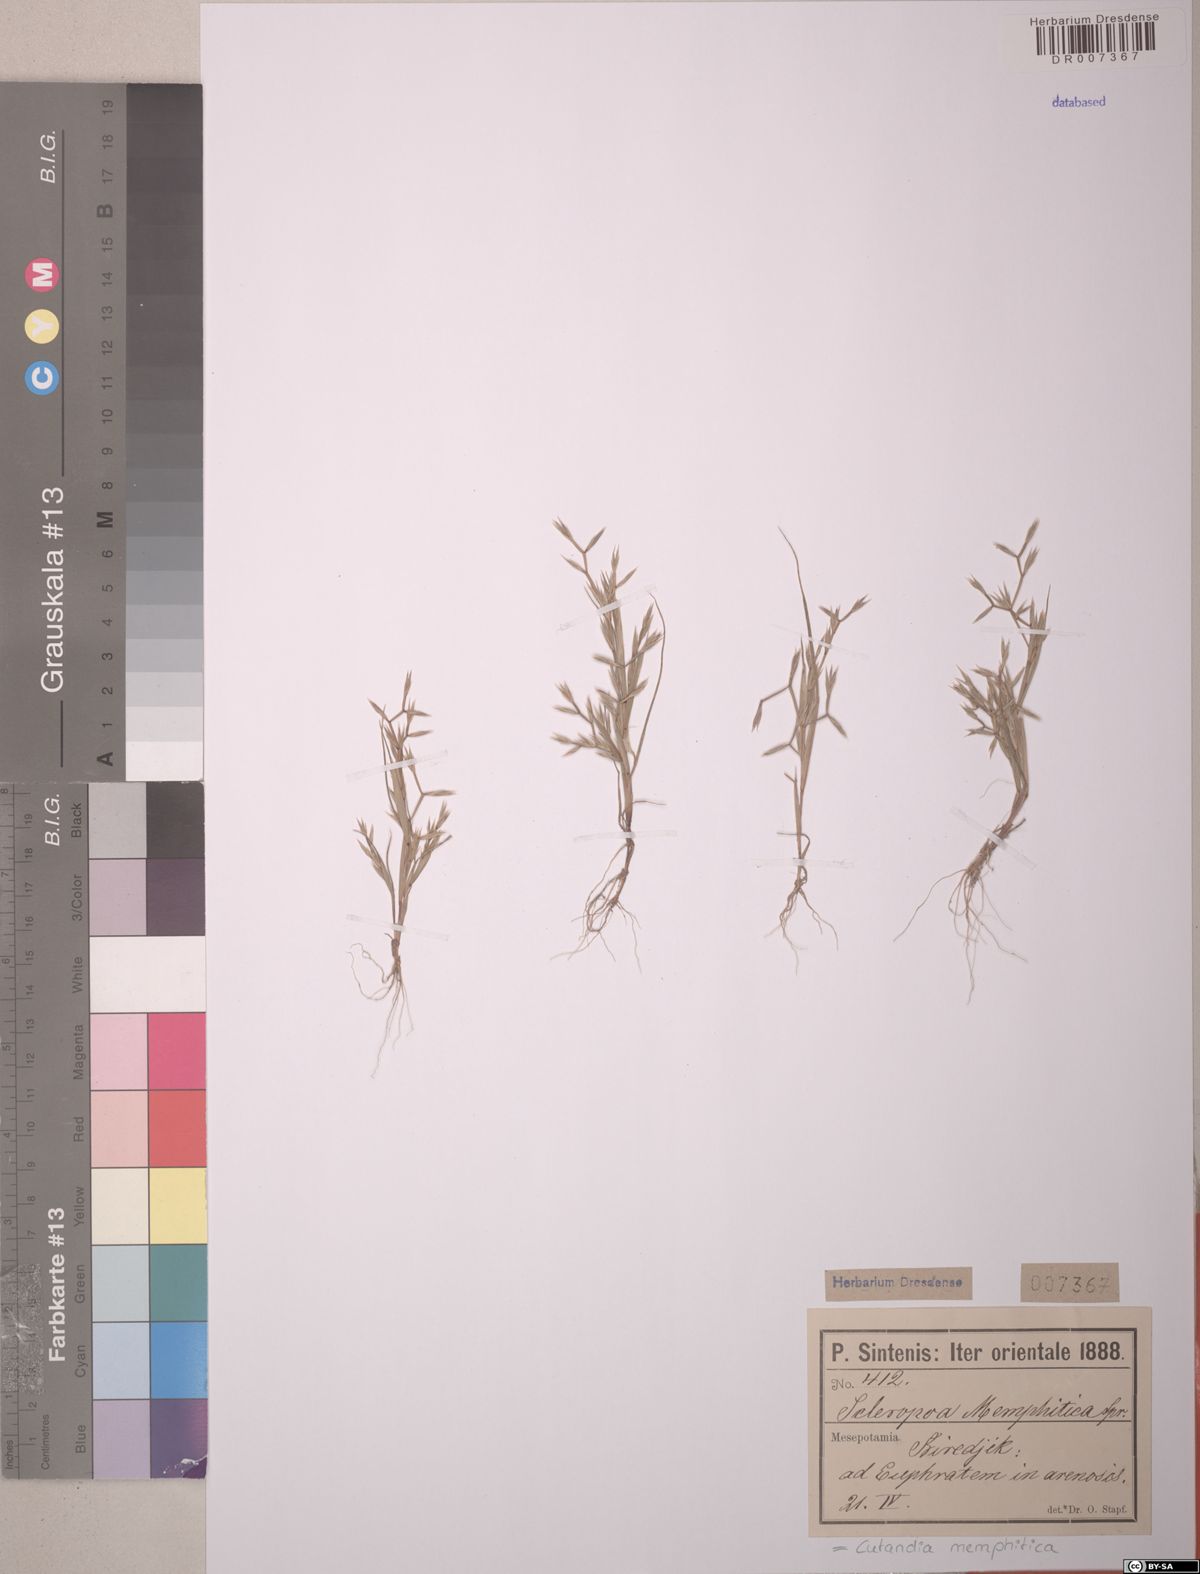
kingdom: Plantae
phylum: Tracheophyta
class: Liliopsida
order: Poales
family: Poaceae
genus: Cutandia
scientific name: Cutandia memphitica
